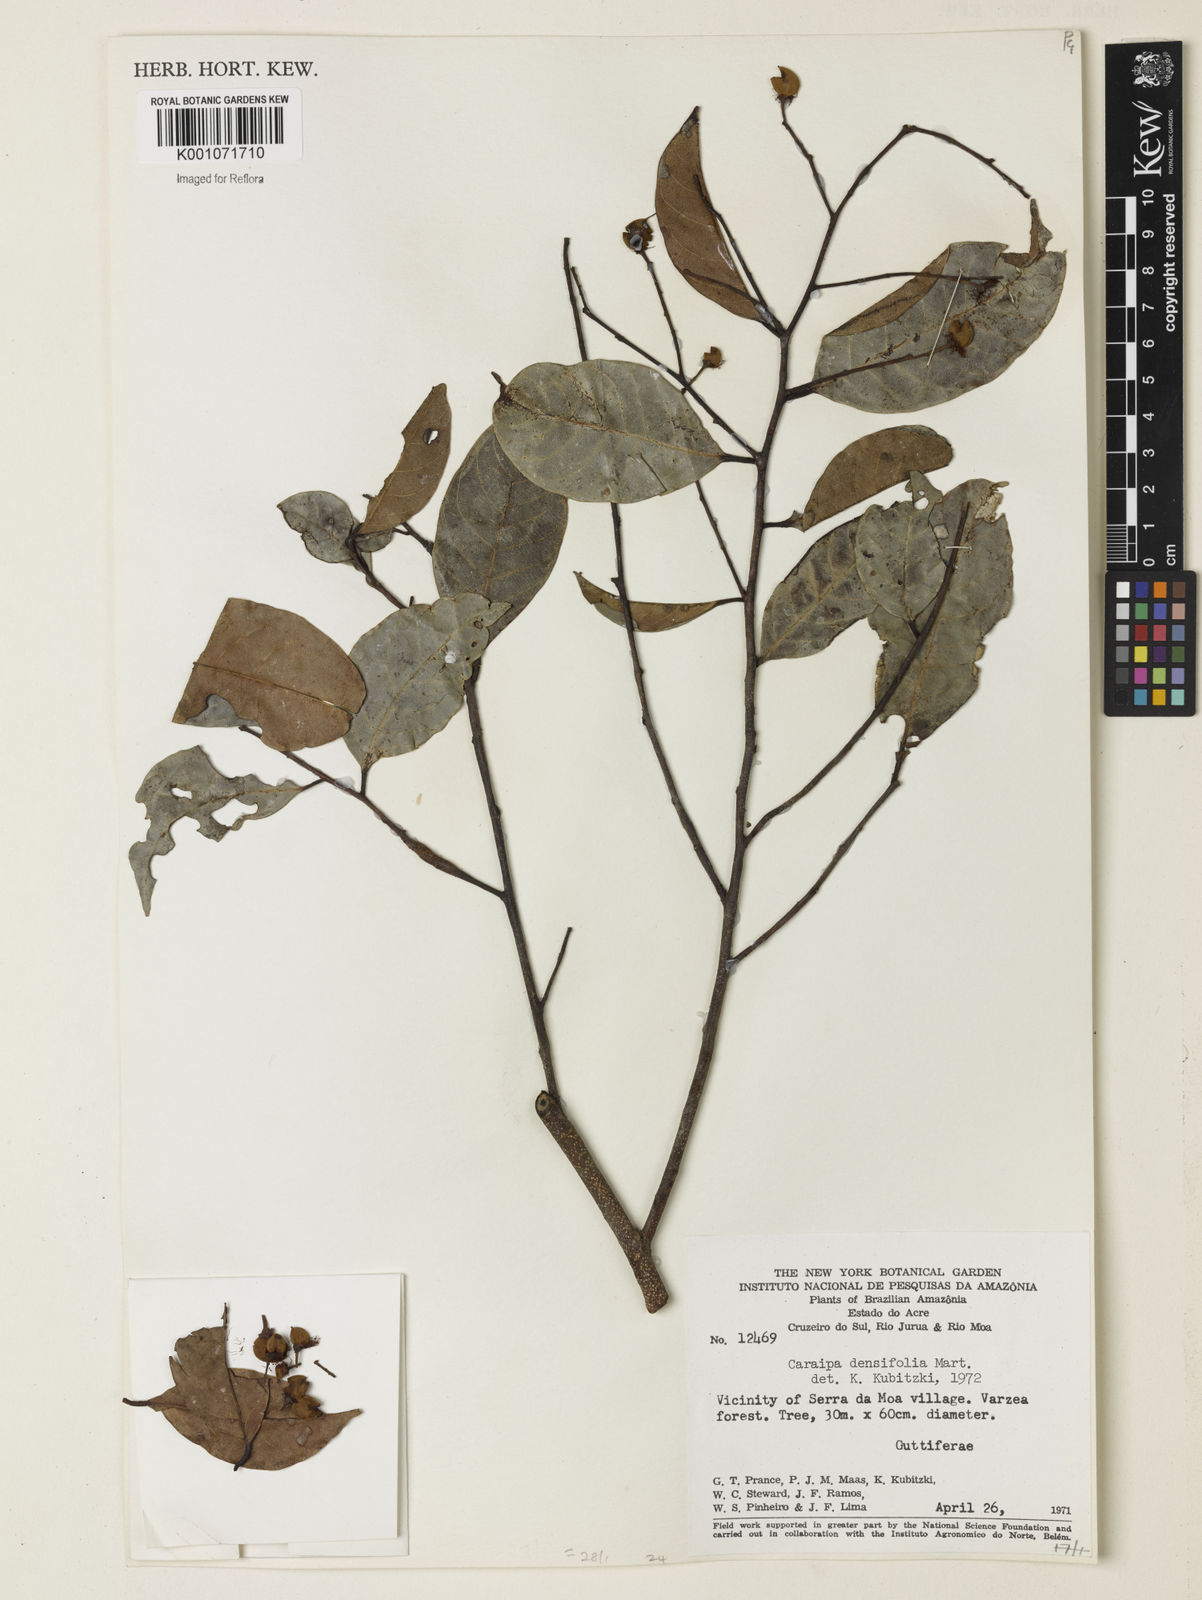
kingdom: Plantae
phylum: Tracheophyta
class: Magnoliopsida
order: Malpighiales
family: Calophyllaceae
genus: Caraipa
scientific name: Caraipa densifolia
